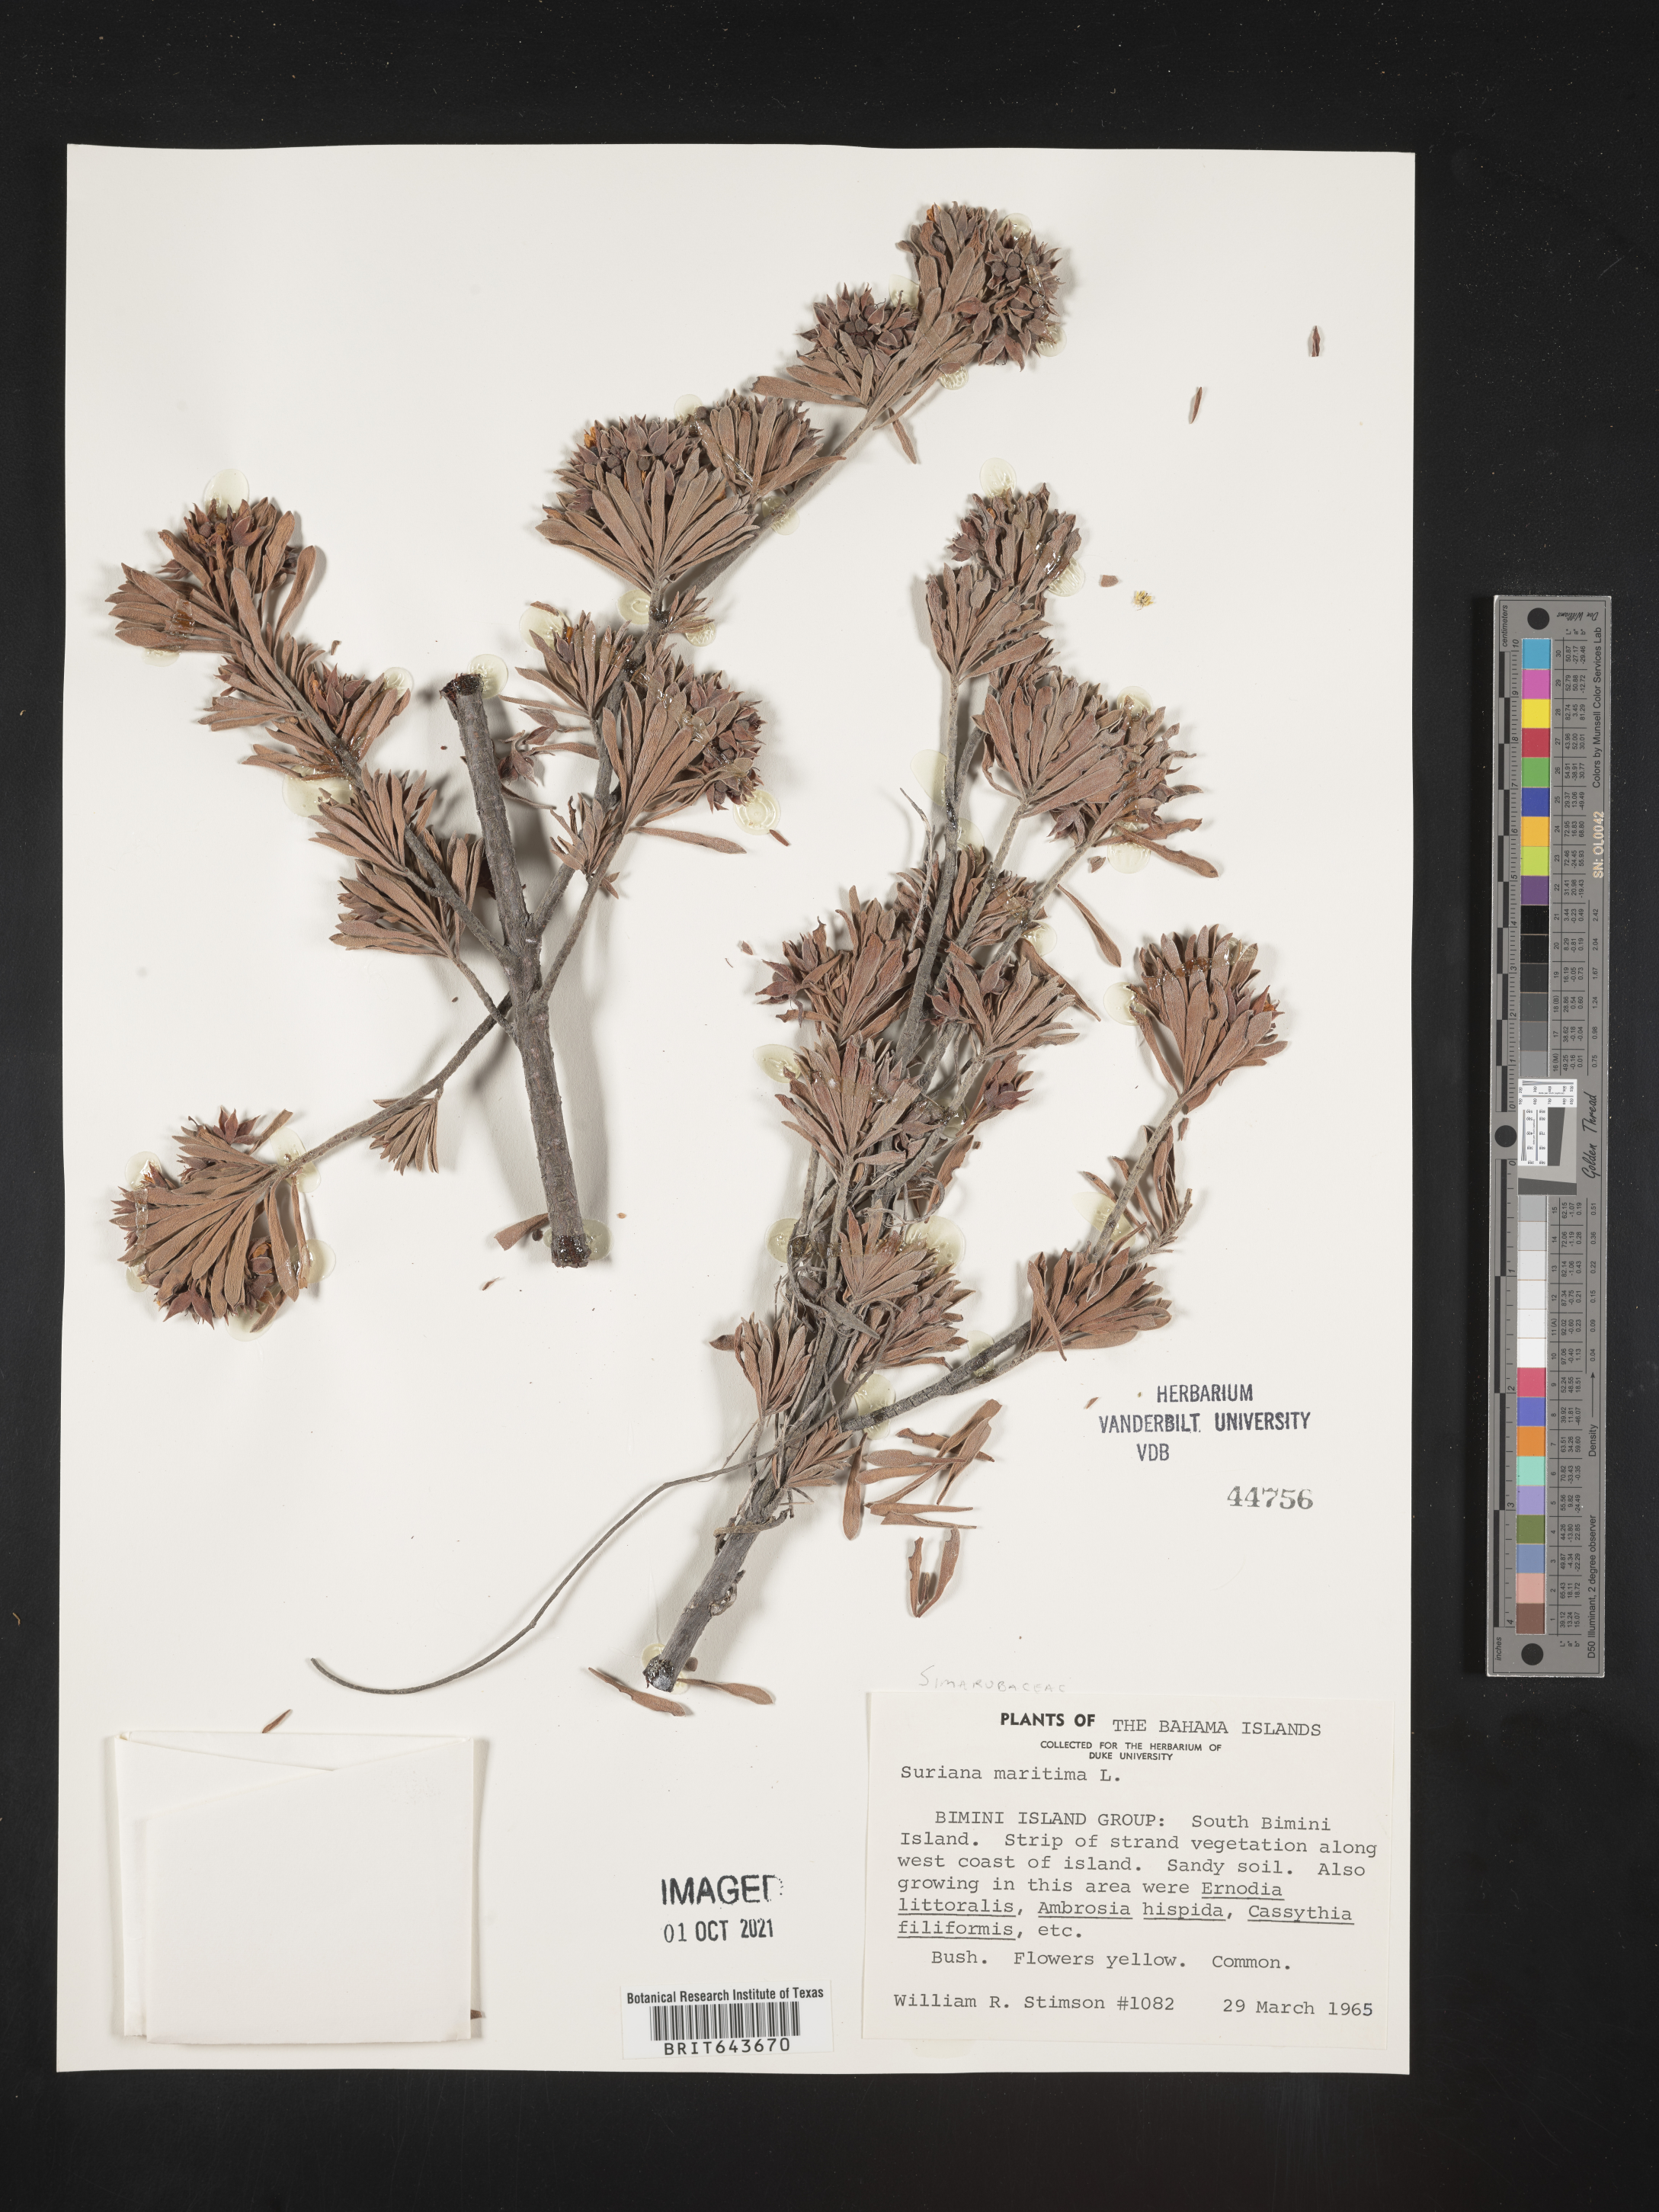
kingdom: Plantae
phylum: Tracheophyta
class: Magnoliopsida
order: Fabales
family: Surianaceae
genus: Suriana
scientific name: Suriana maritima
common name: Bay-cedar
